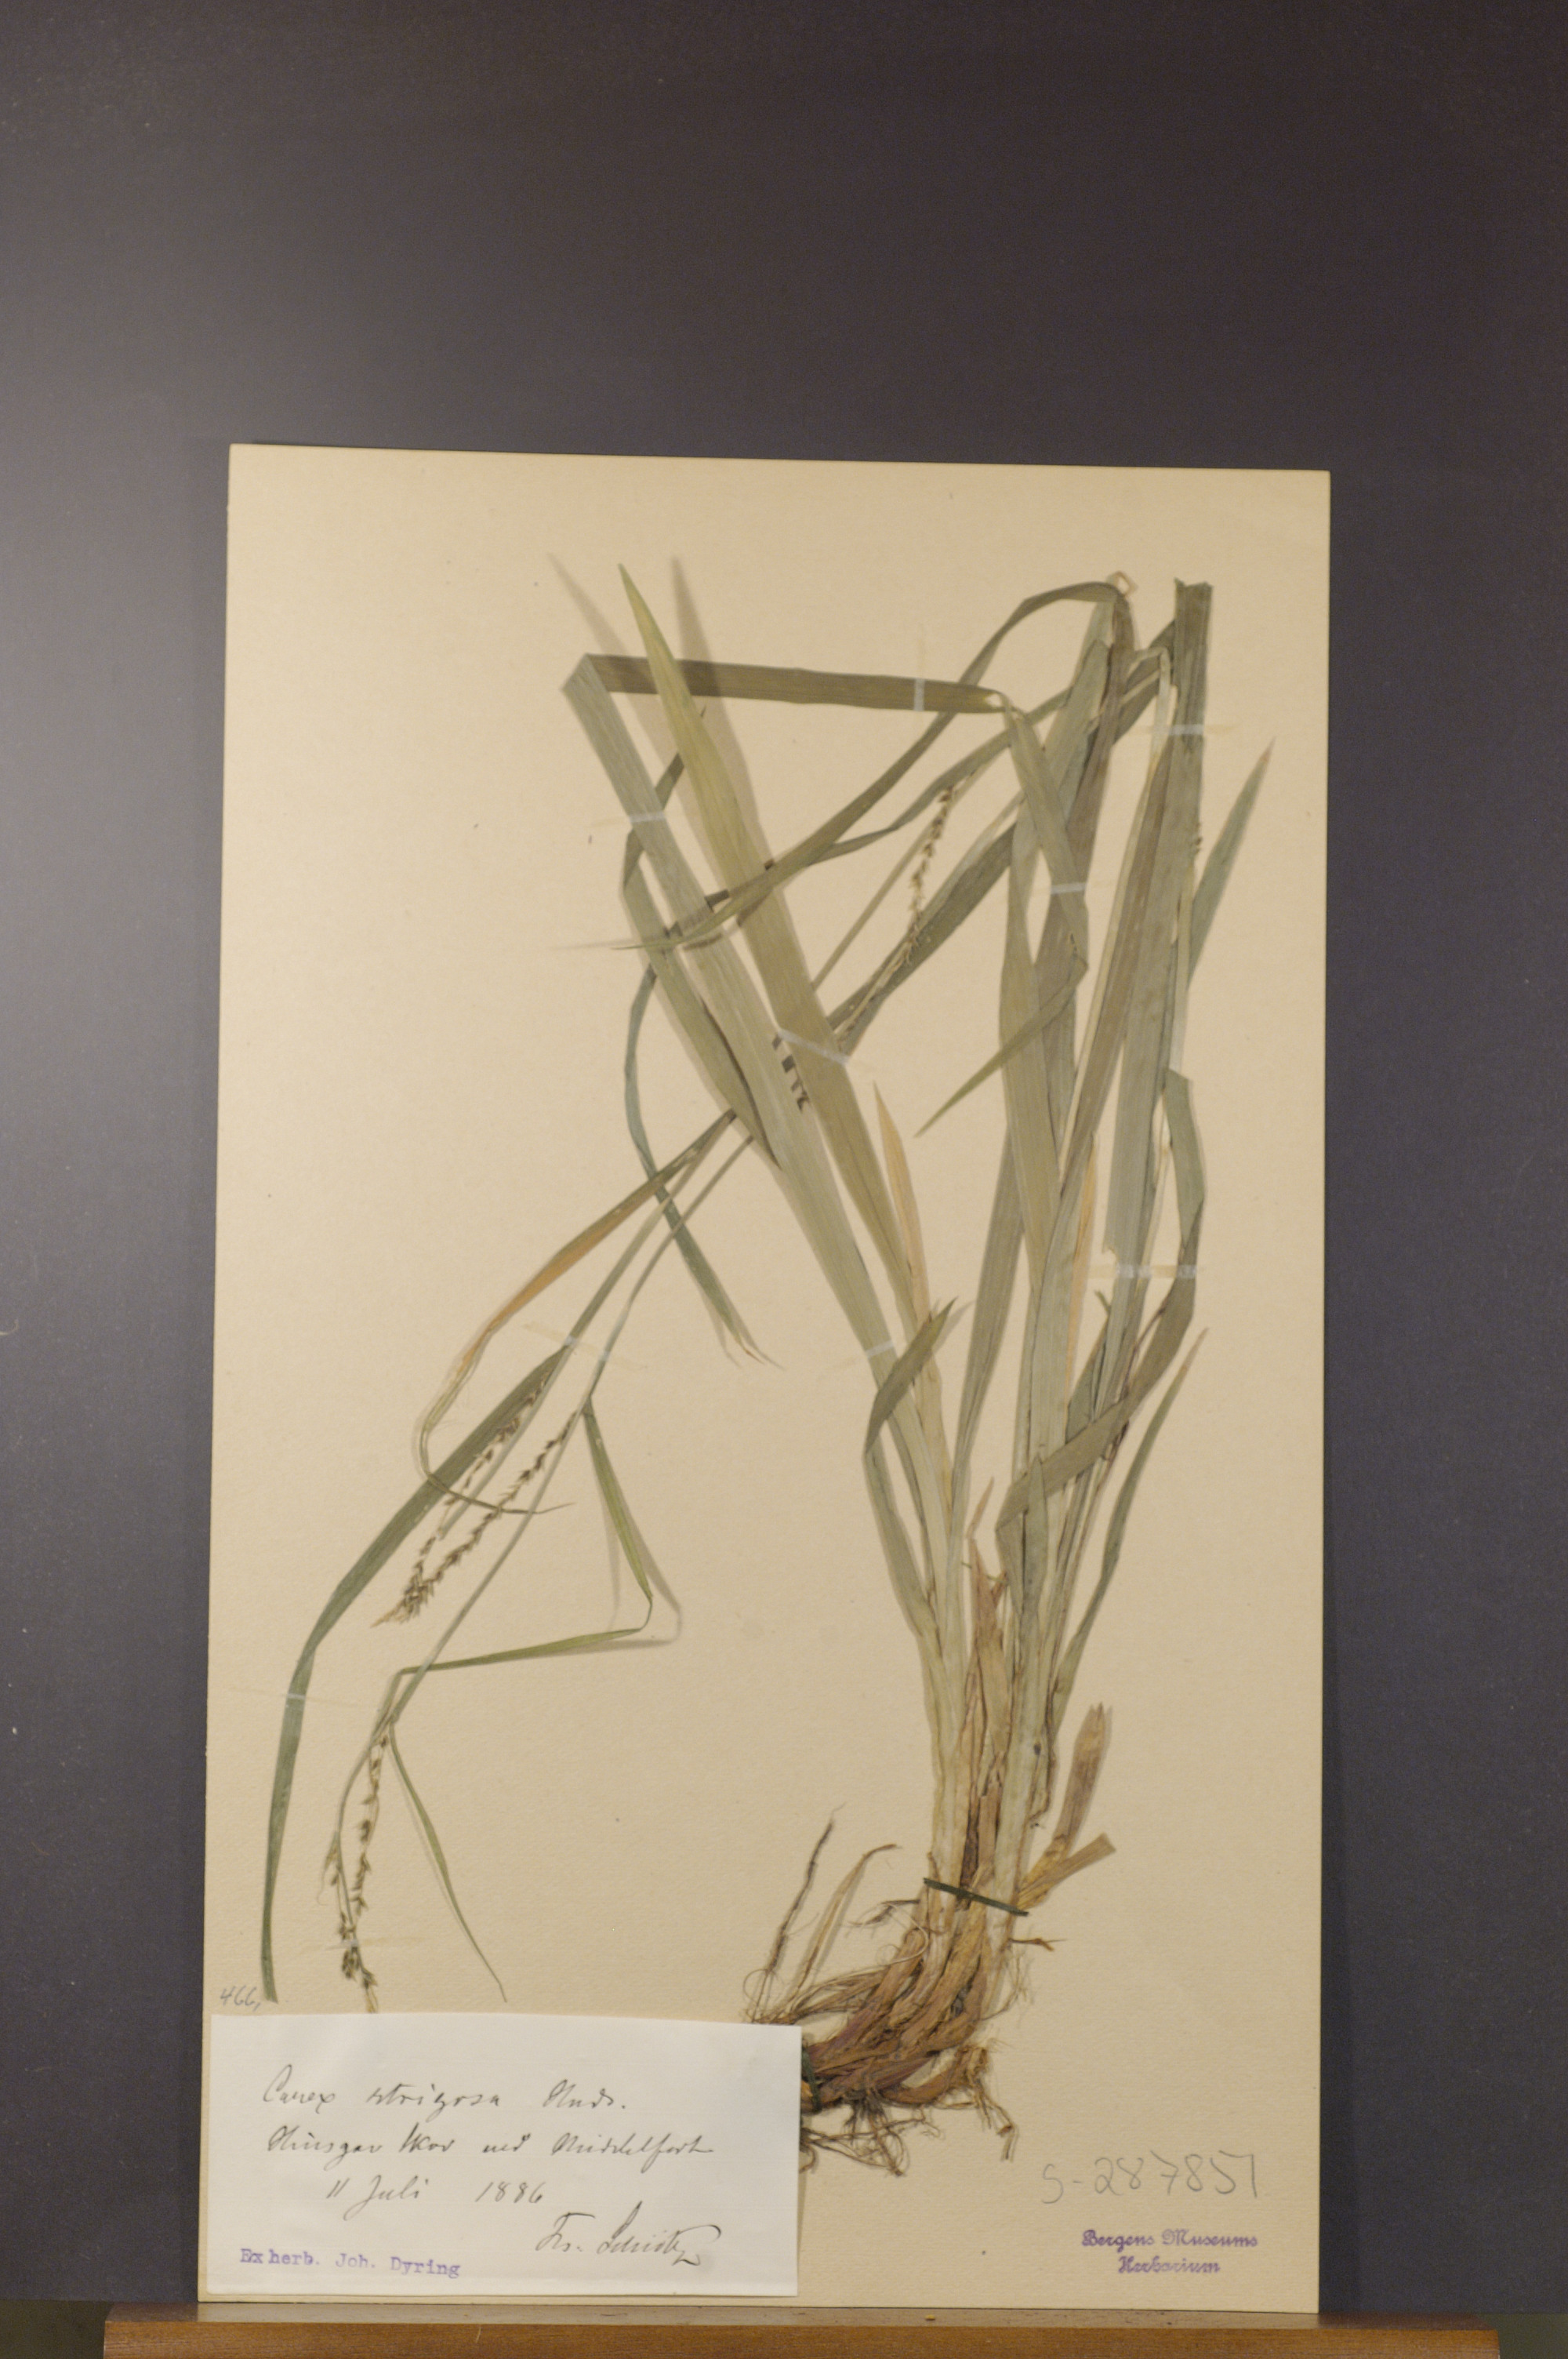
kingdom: Plantae
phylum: Tracheophyta
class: Liliopsida
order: Poales
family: Cyperaceae
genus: Carex
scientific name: Carex strigosa
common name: Thin-spiked wood-sedge
